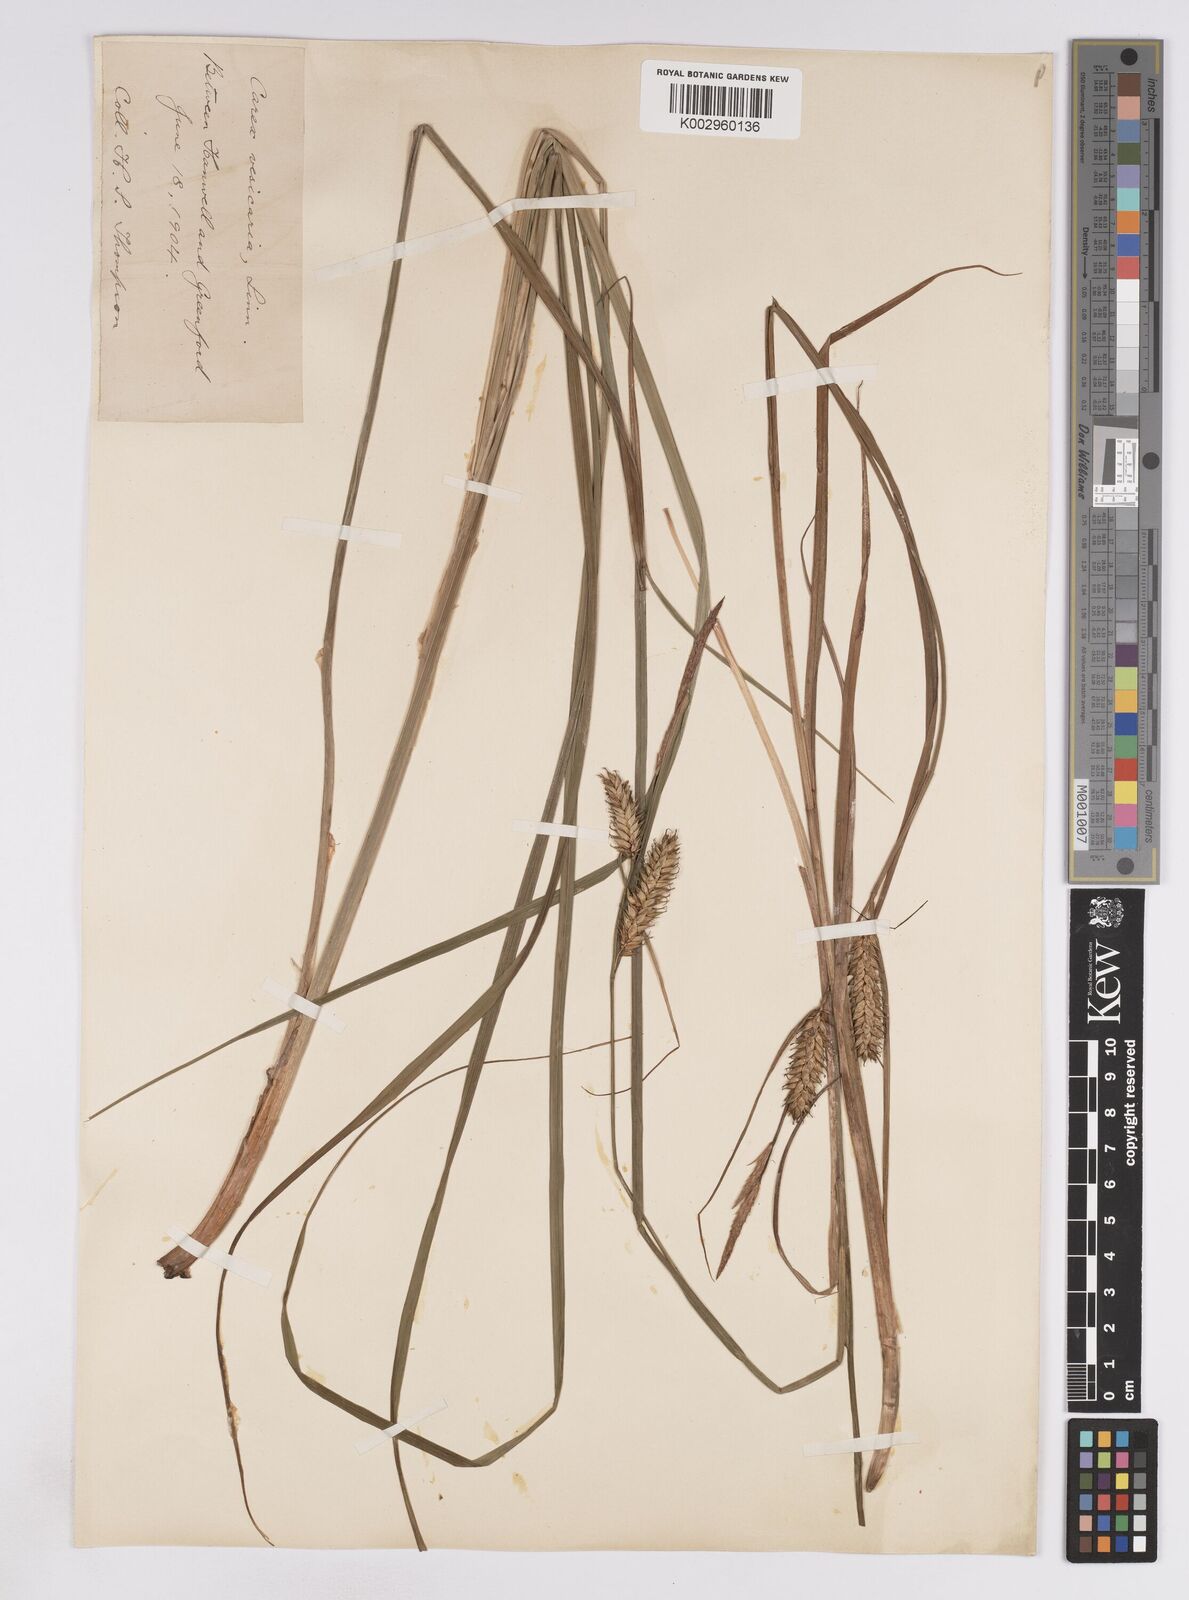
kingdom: Plantae
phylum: Tracheophyta
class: Liliopsida
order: Poales
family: Cyperaceae
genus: Carex
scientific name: Carex vesicaria
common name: Bladder-sedge
